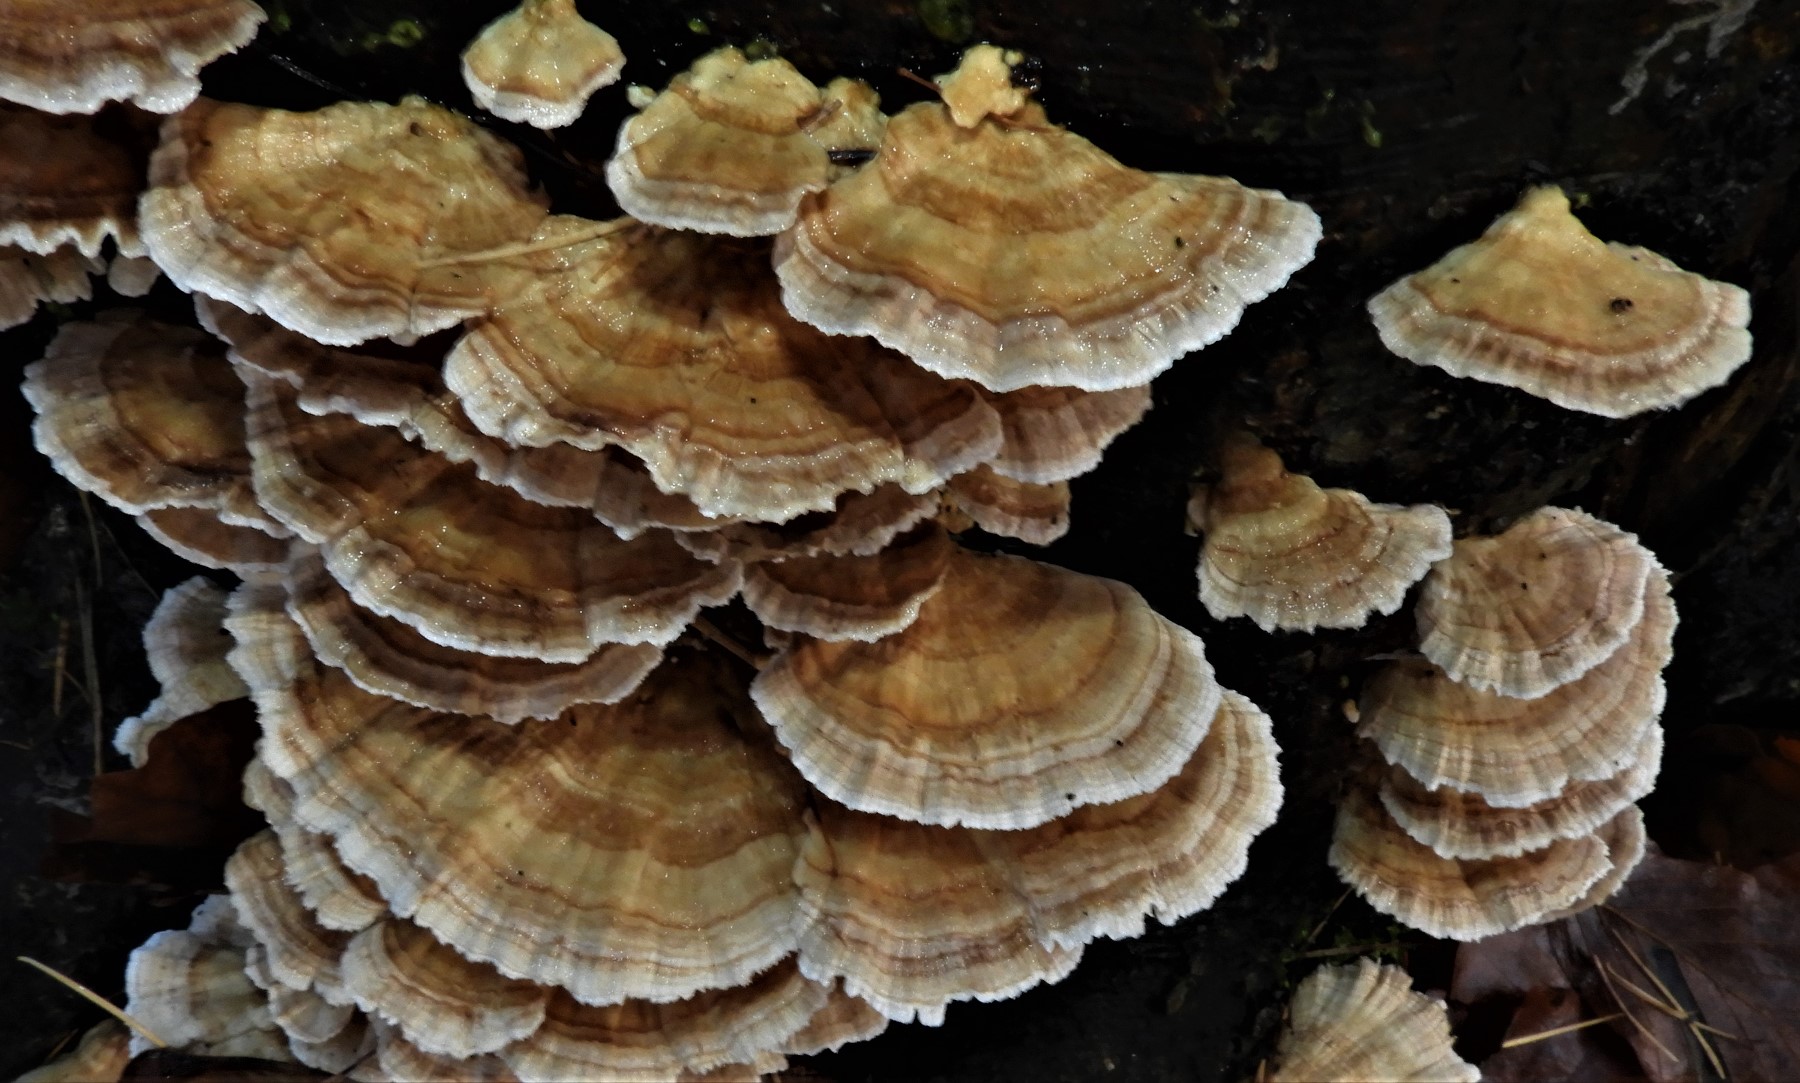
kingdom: Fungi
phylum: Basidiomycota
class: Agaricomycetes
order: Polyporales
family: Polyporaceae
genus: Trametes
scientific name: Trametes ochracea
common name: bæltet læderporesvamp
